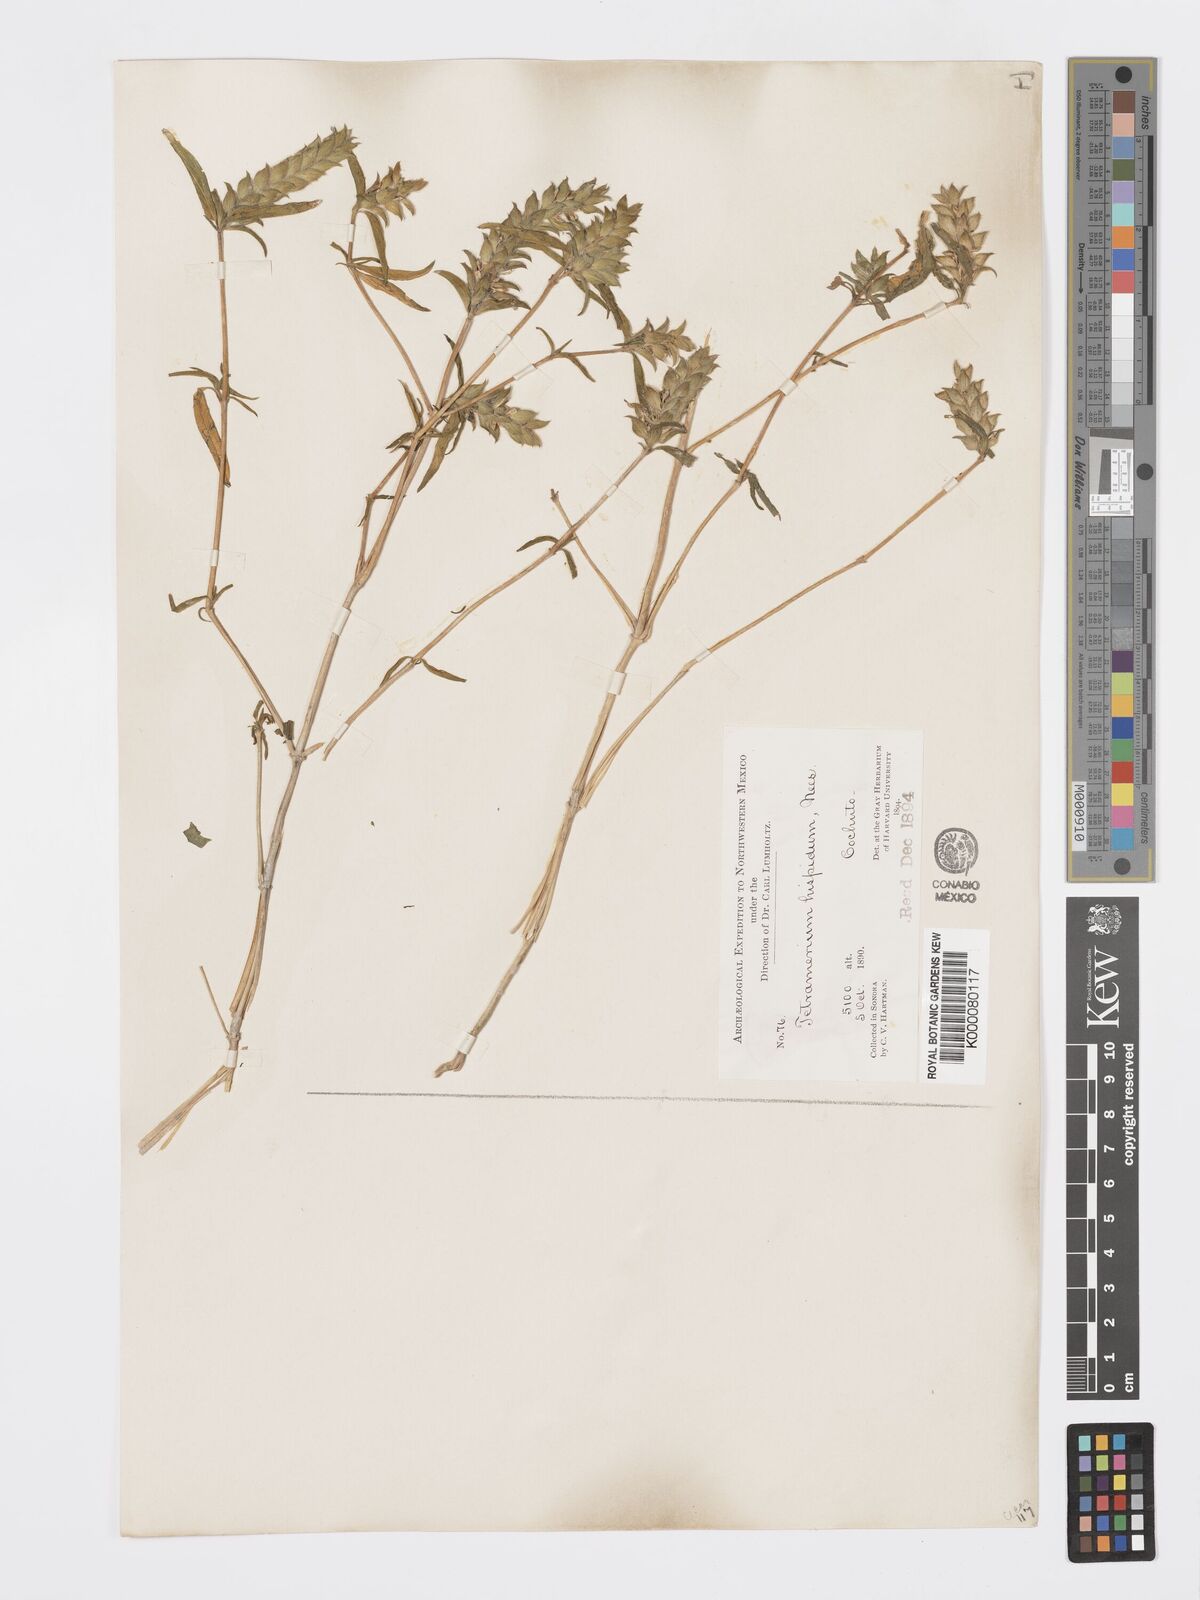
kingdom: Plantae
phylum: Tracheophyta
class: Magnoliopsida
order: Lamiales
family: Acanthaceae
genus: Tetramerium
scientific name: Tetramerium nervosum
